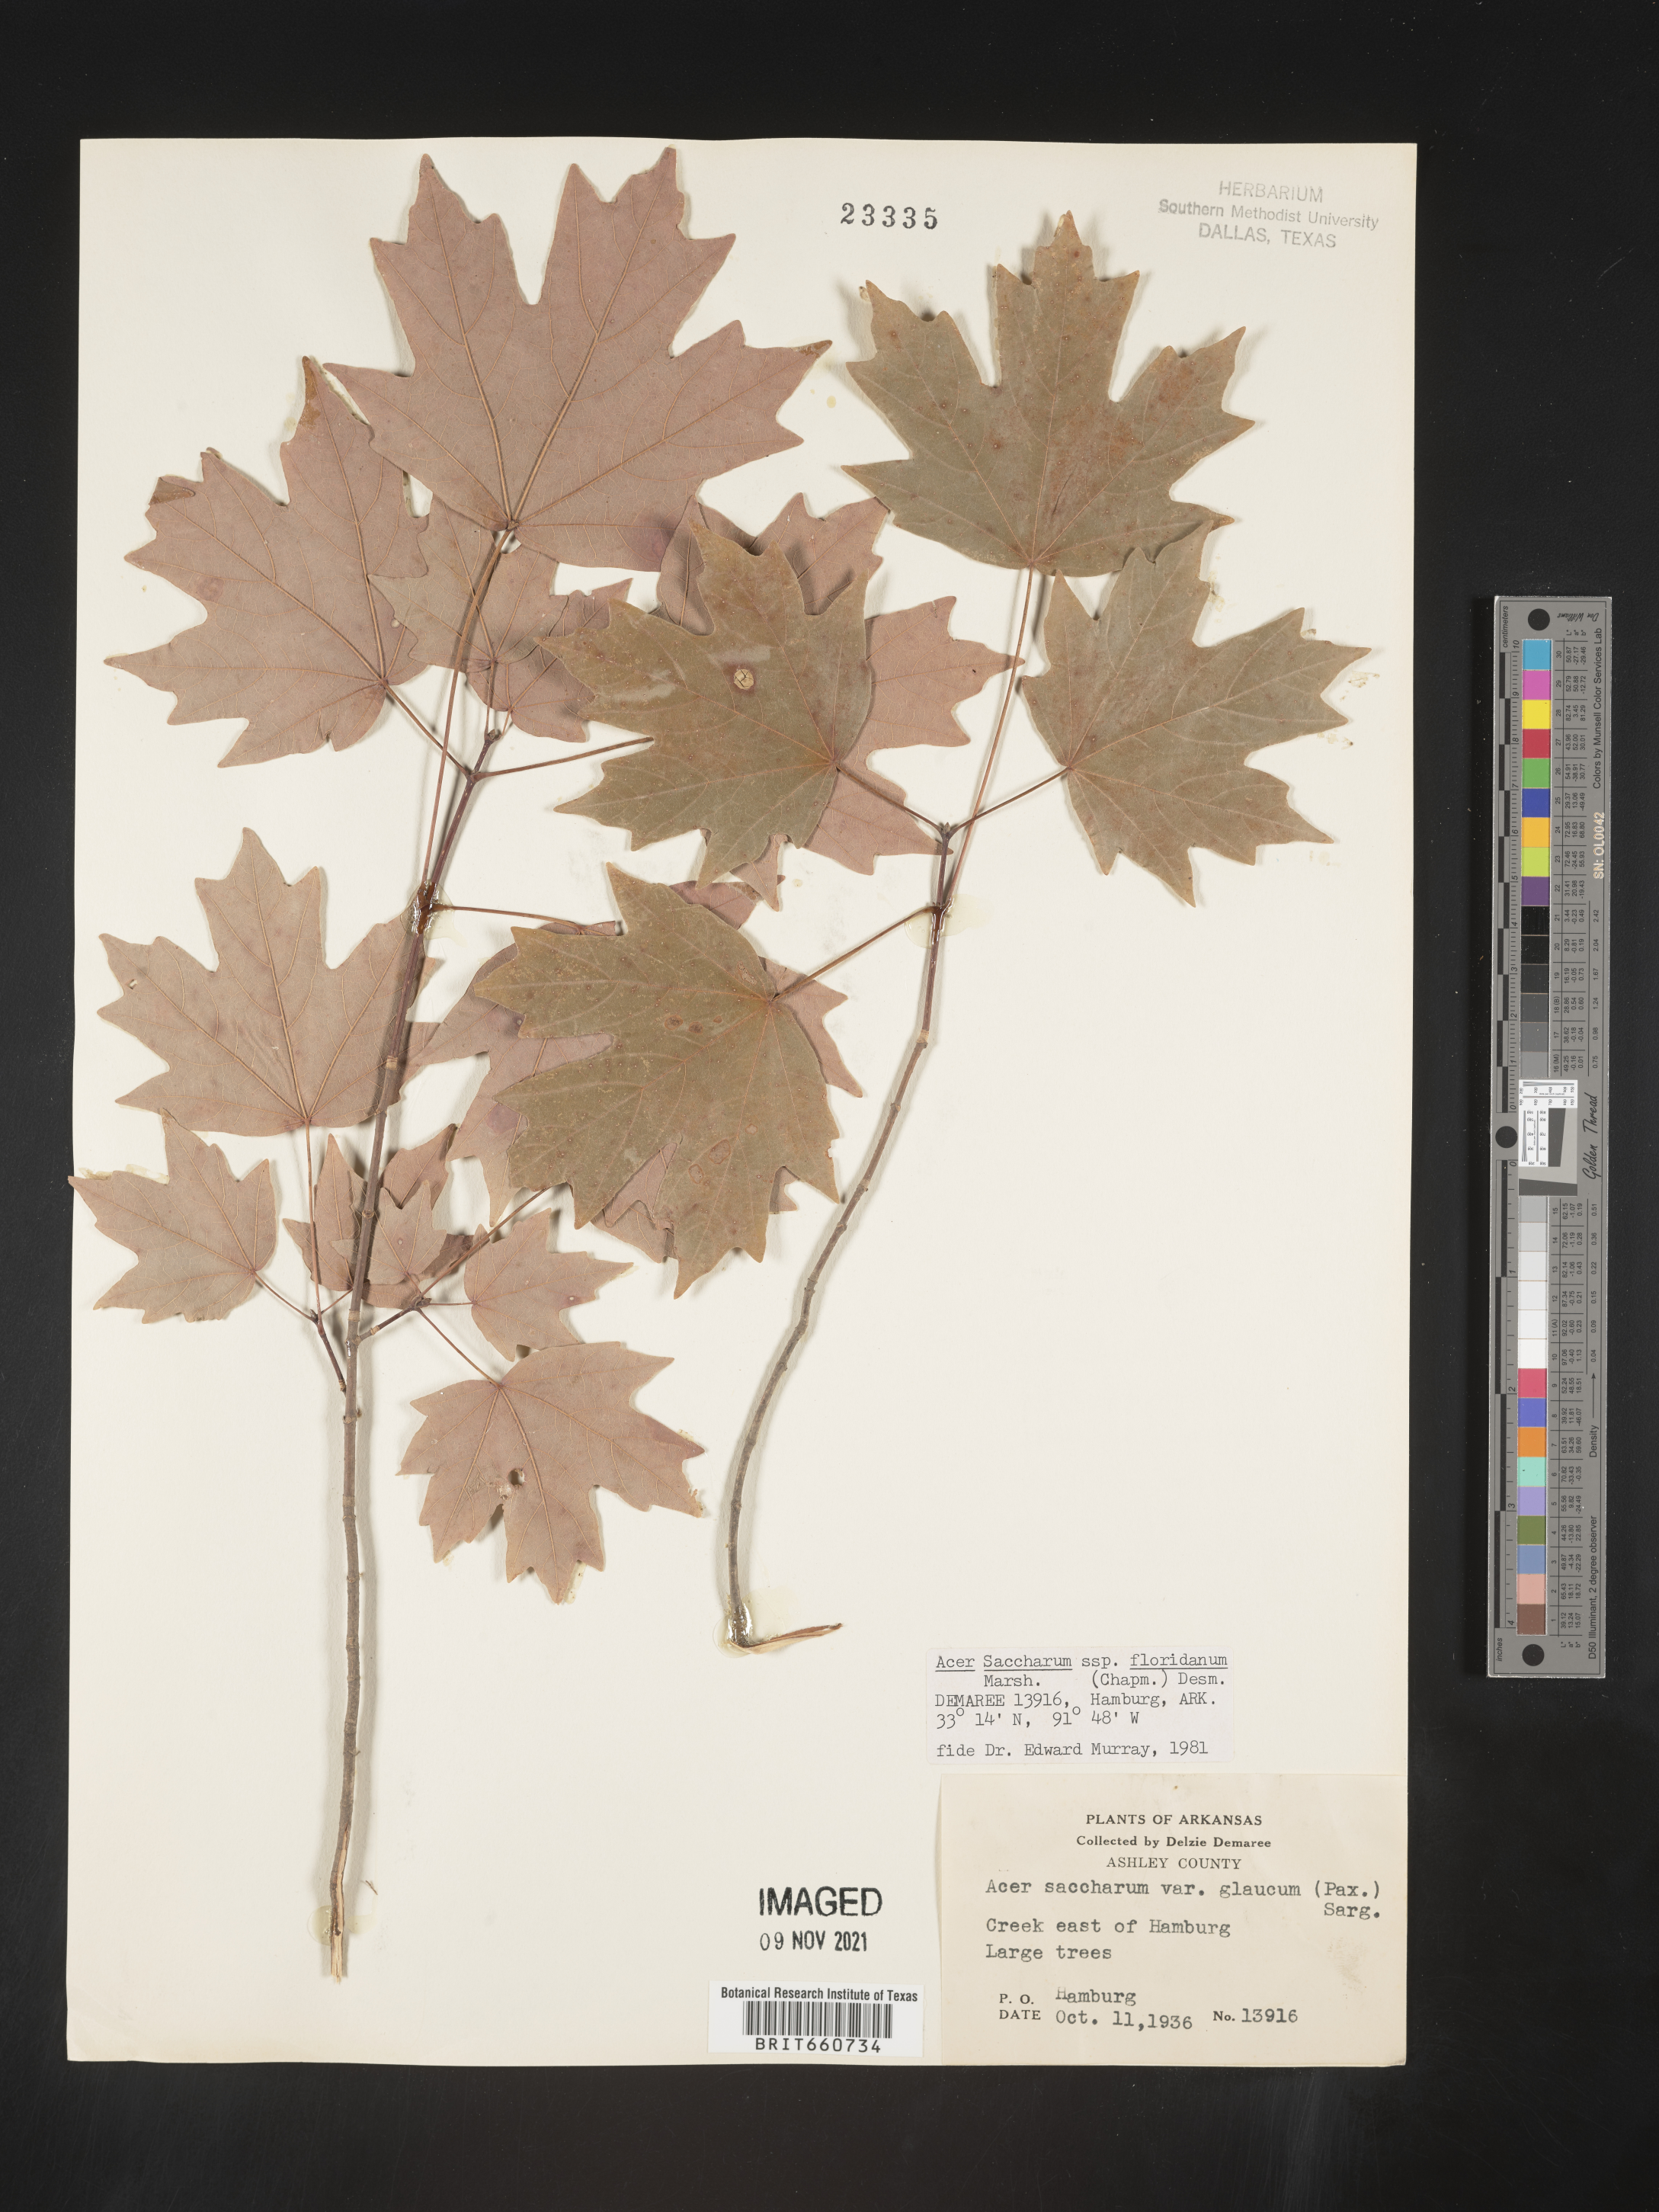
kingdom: Plantae
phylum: Tracheophyta
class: Magnoliopsida
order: Sapindales
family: Sapindaceae
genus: Acer
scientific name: Acer barbatum
